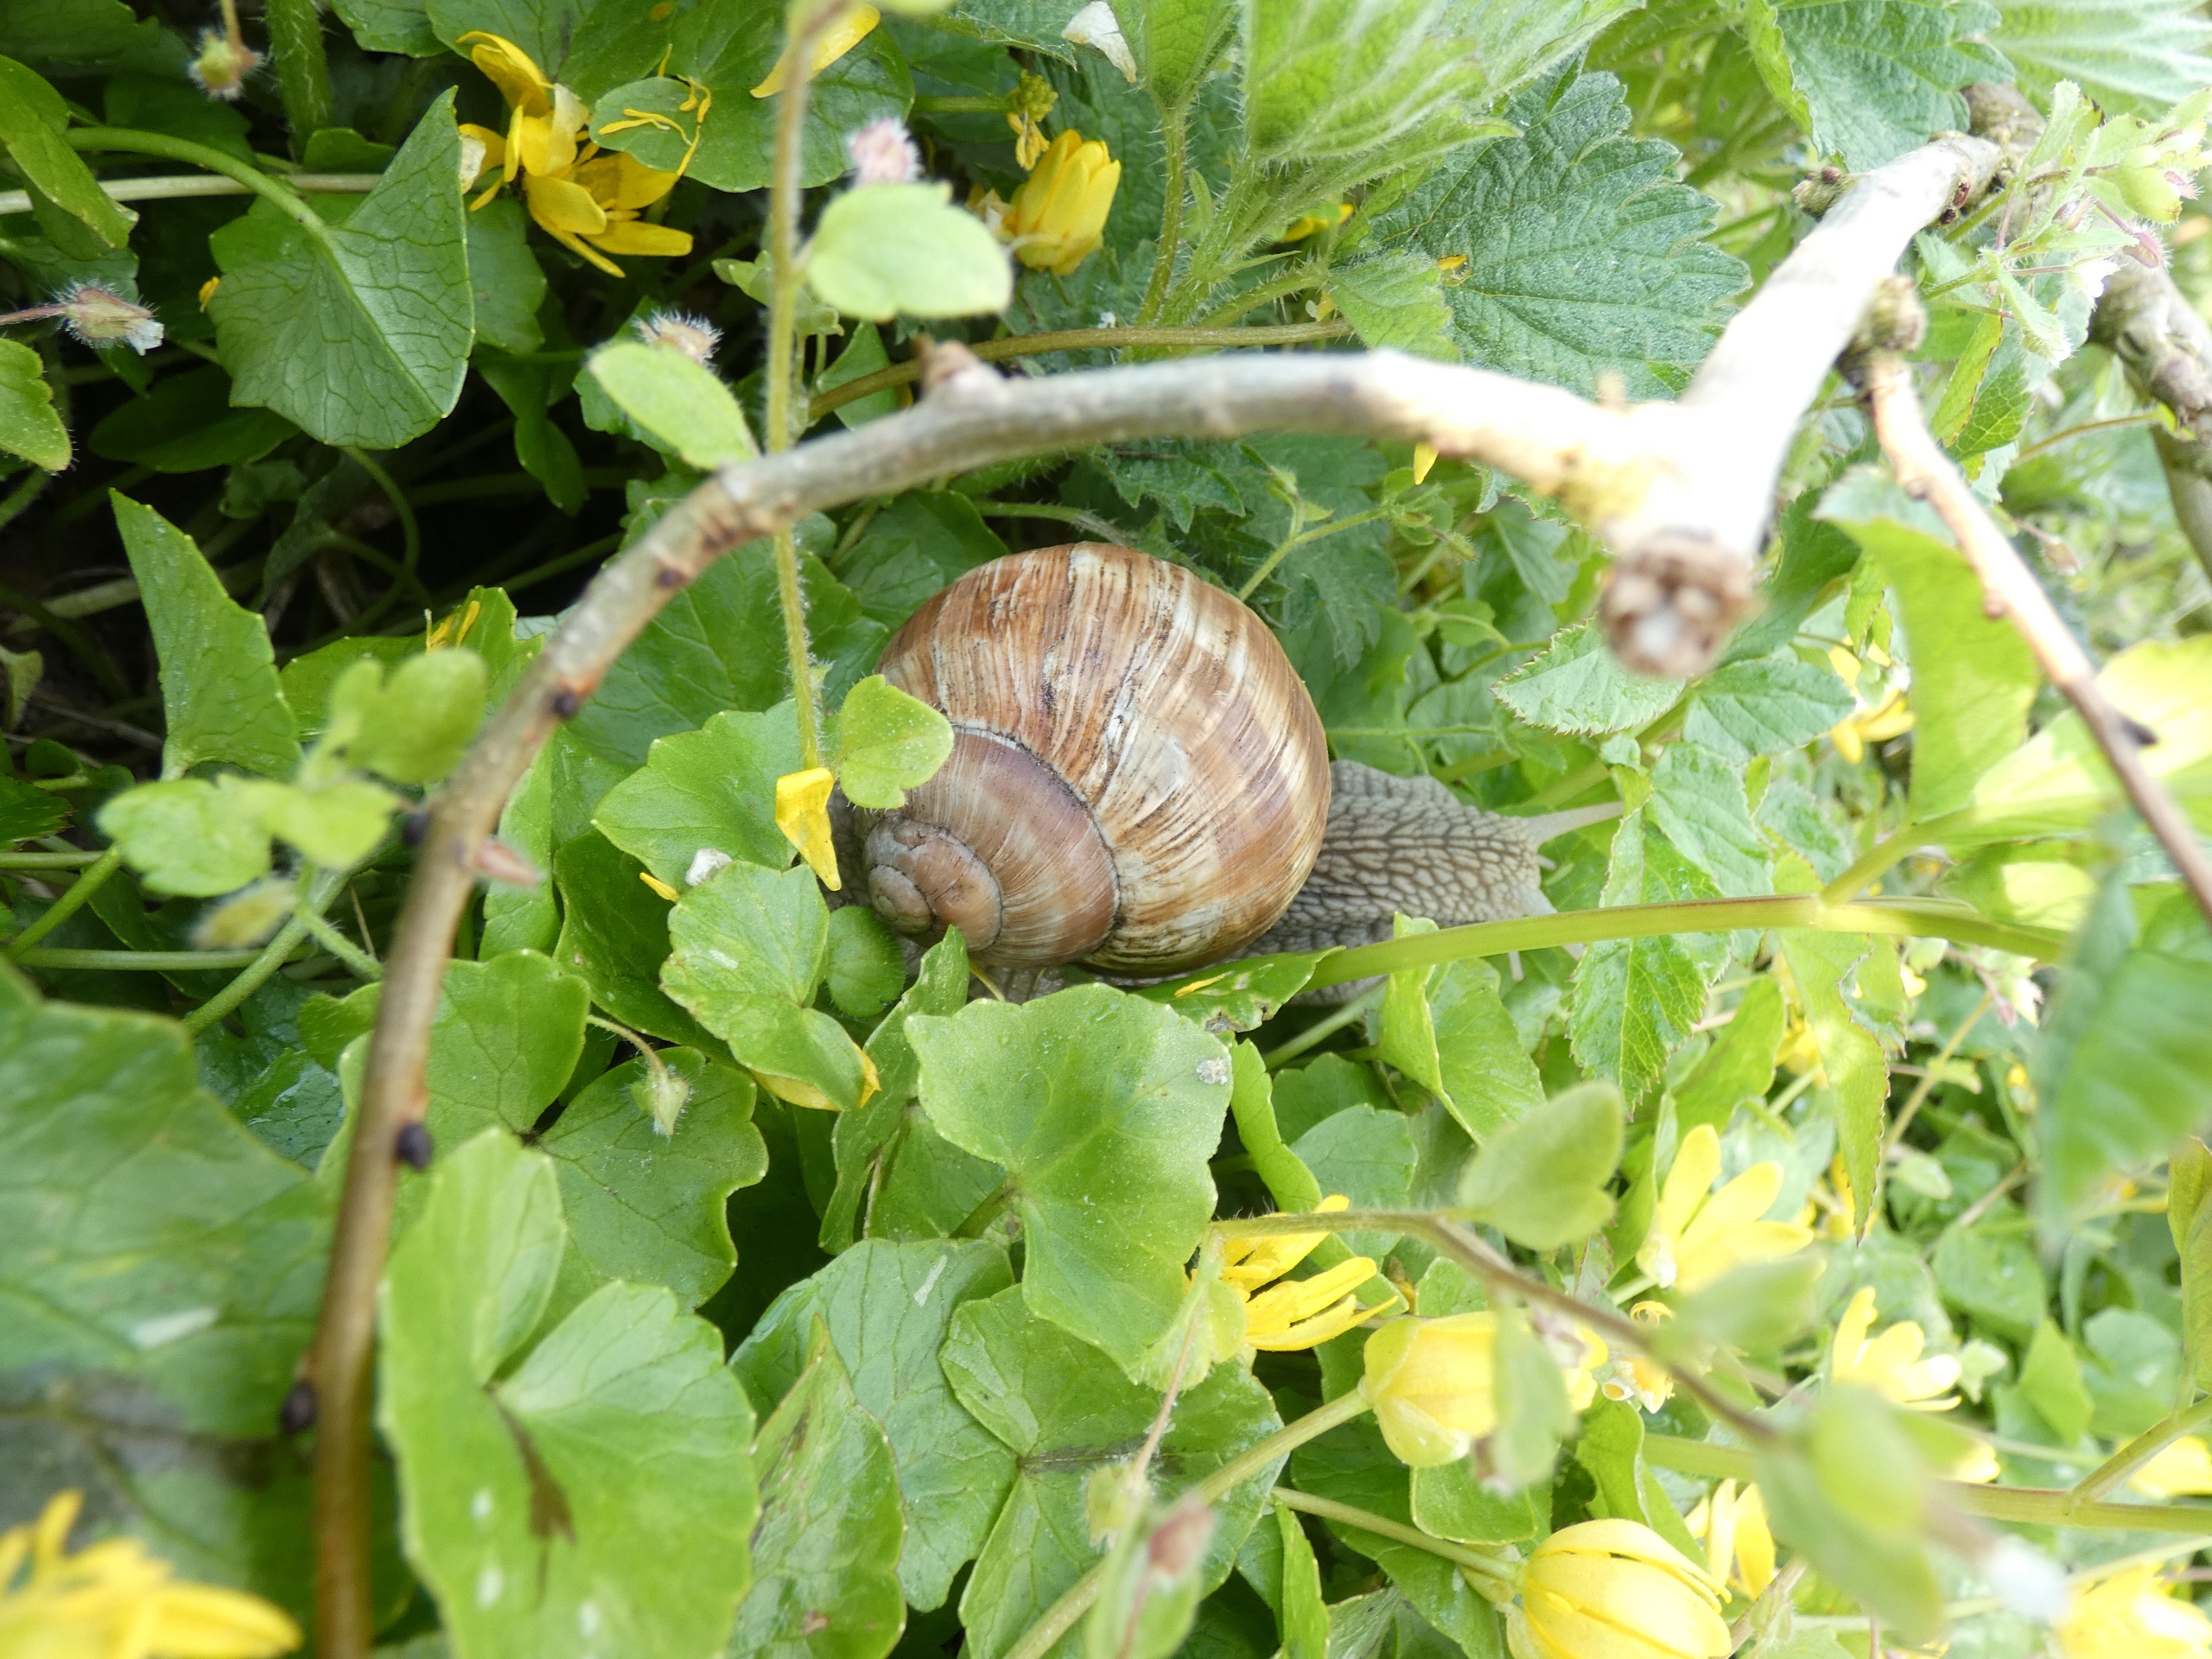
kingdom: Animalia
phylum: Mollusca
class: Gastropoda
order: Stylommatophora
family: Helicidae
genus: Helix
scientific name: Helix pomatia
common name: Vinbjergsnegl
